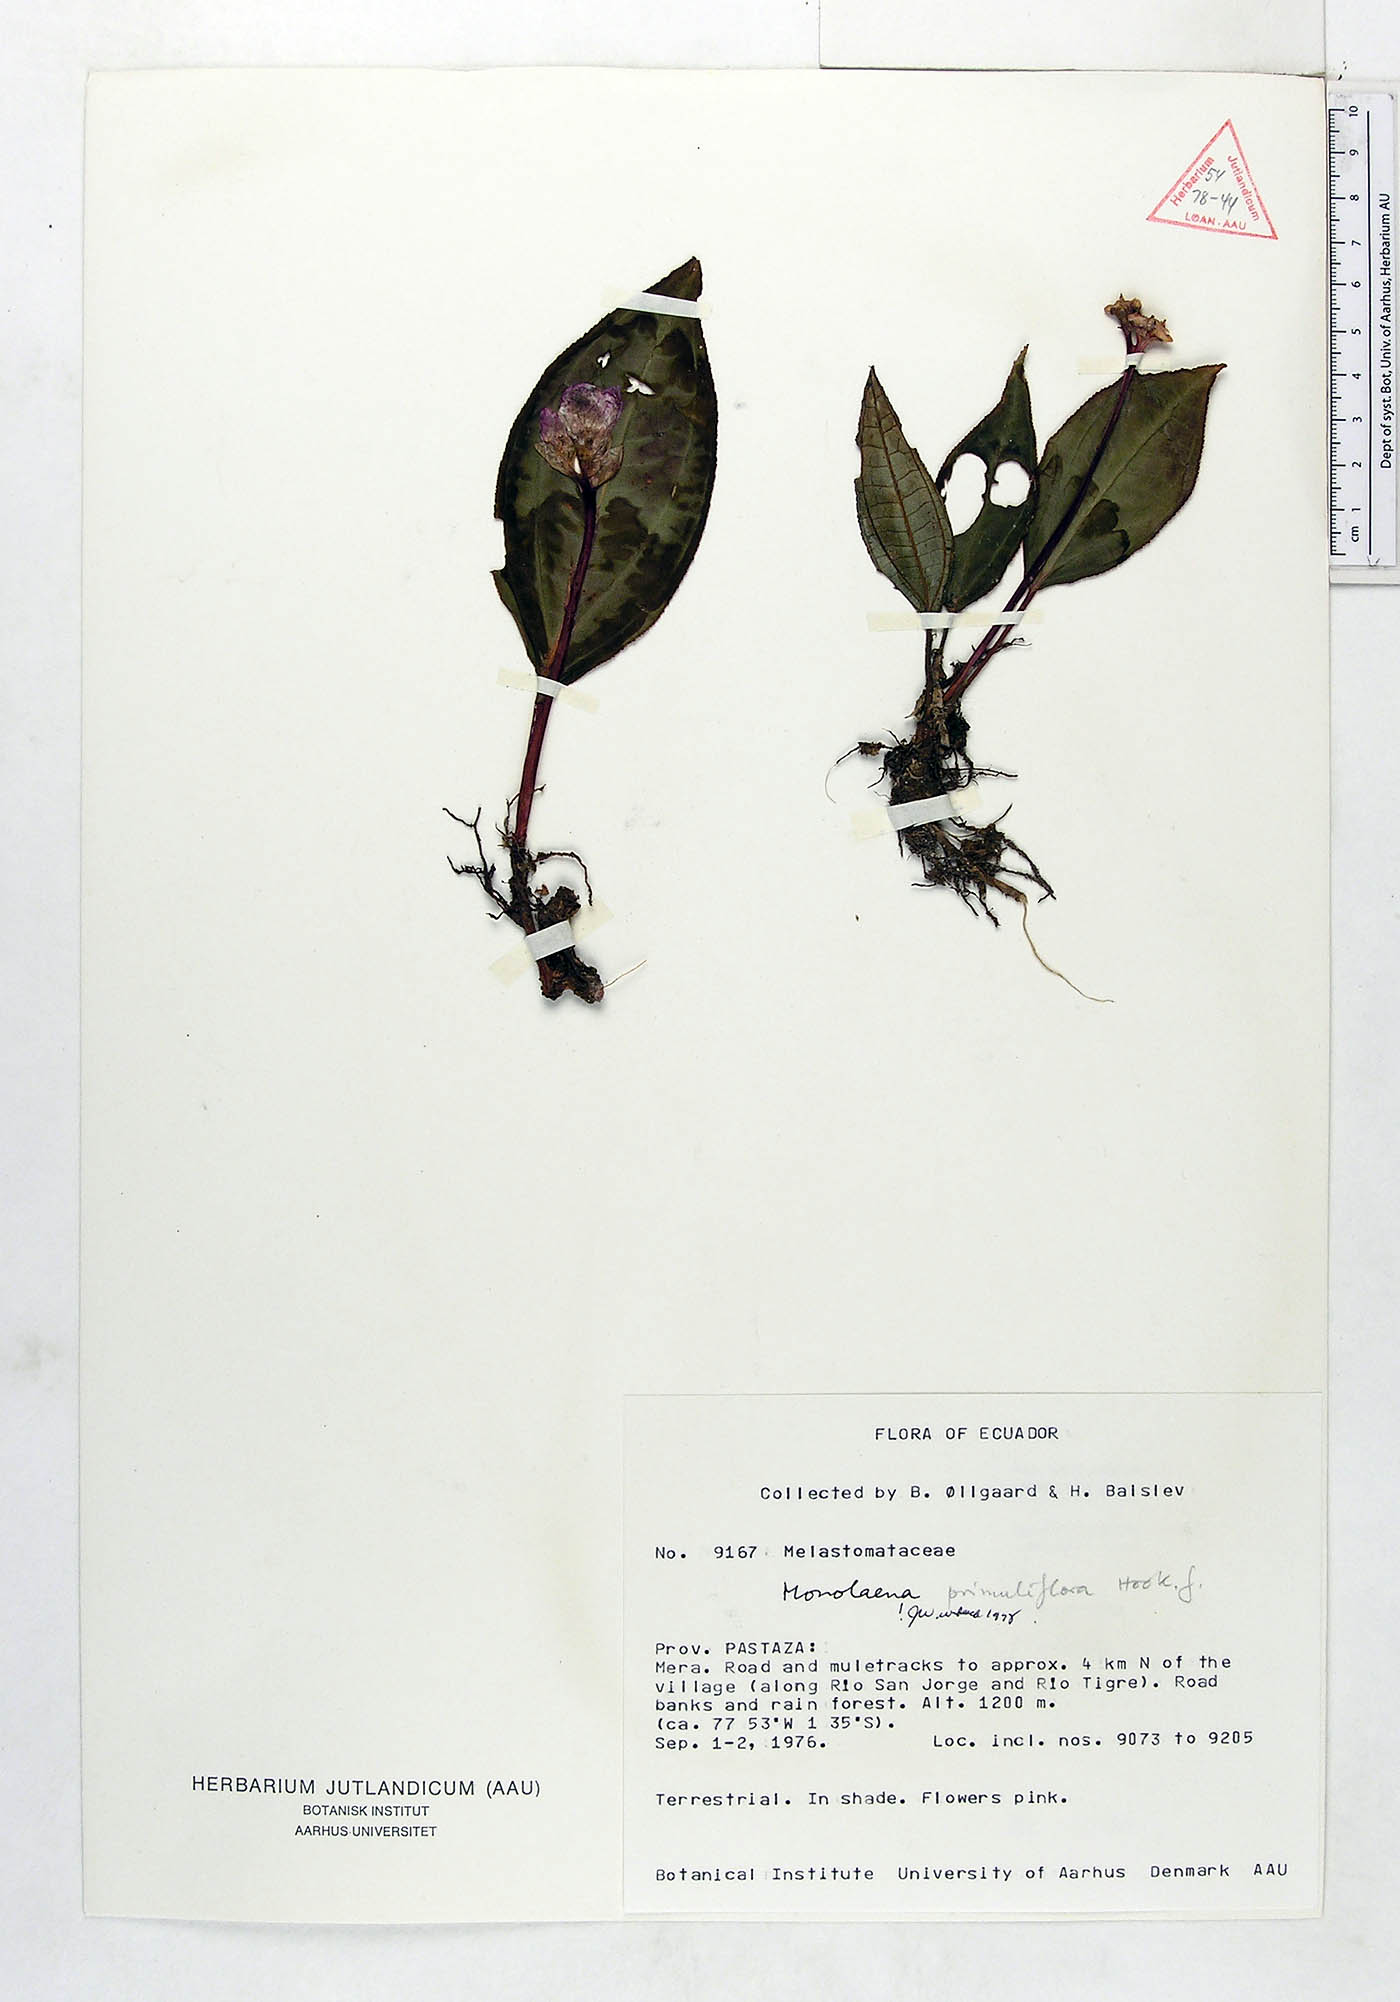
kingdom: Plantae
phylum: Tracheophyta
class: Magnoliopsida
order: Myrtales
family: Melastomataceae
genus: Monolena
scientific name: Monolena primuliflora
